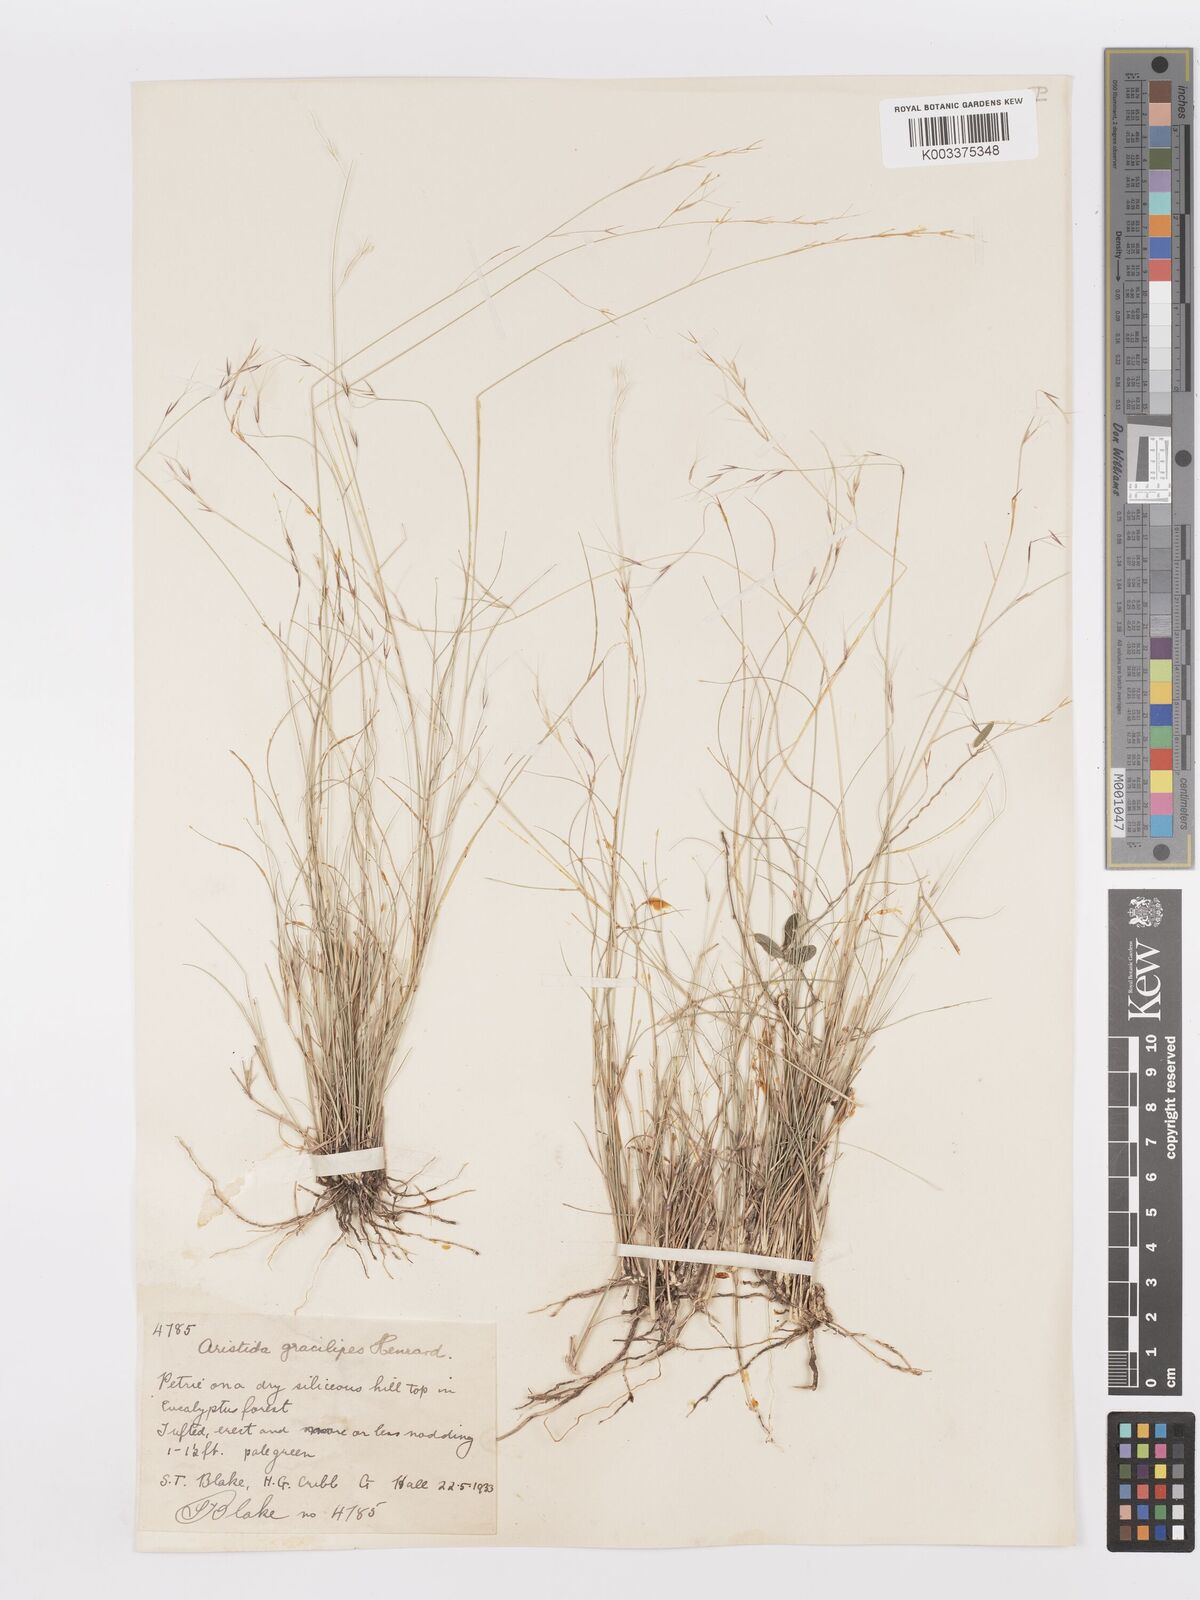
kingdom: Plantae
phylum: Tracheophyta
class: Liliopsida
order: Poales
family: Poaceae
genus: Aristida
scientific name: Aristida gracilipes
